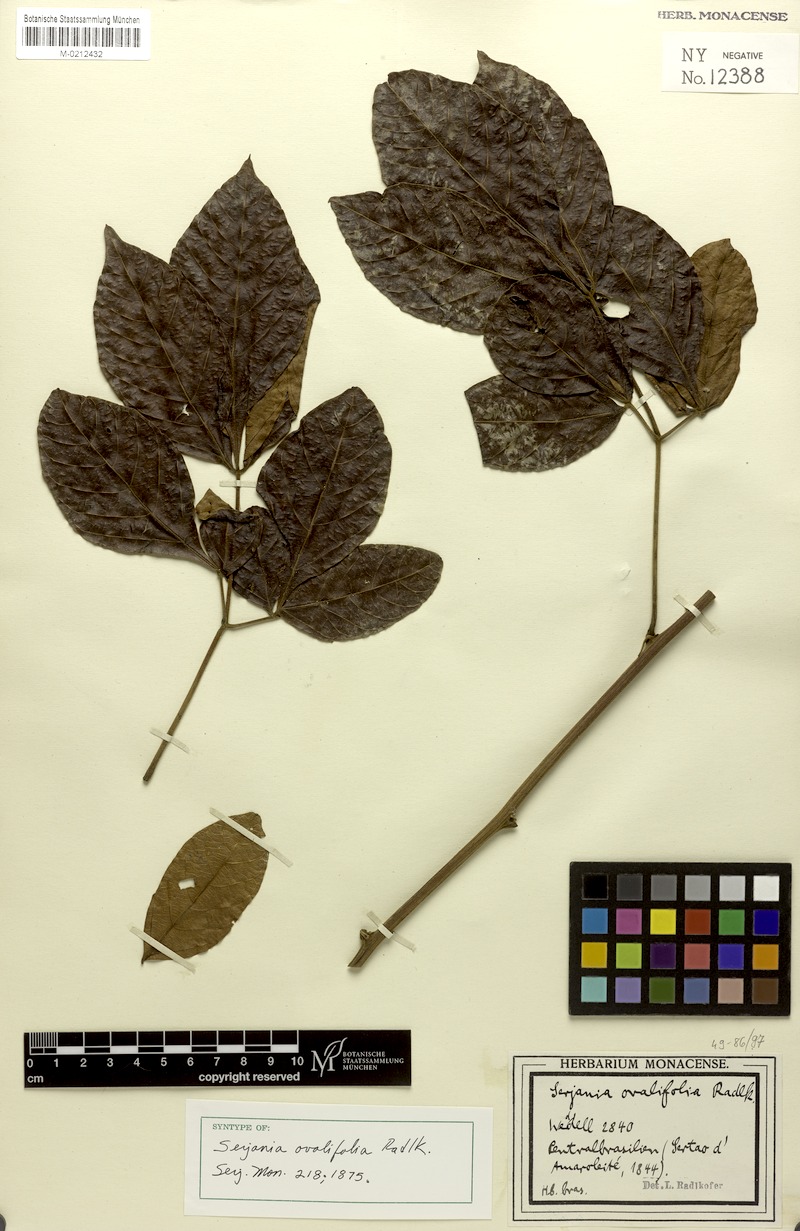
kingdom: Plantae
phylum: Tracheophyta
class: Magnoliopsida
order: Sapindales
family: Sapindaceae
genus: Serjania
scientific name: Serjania ovalifolia
